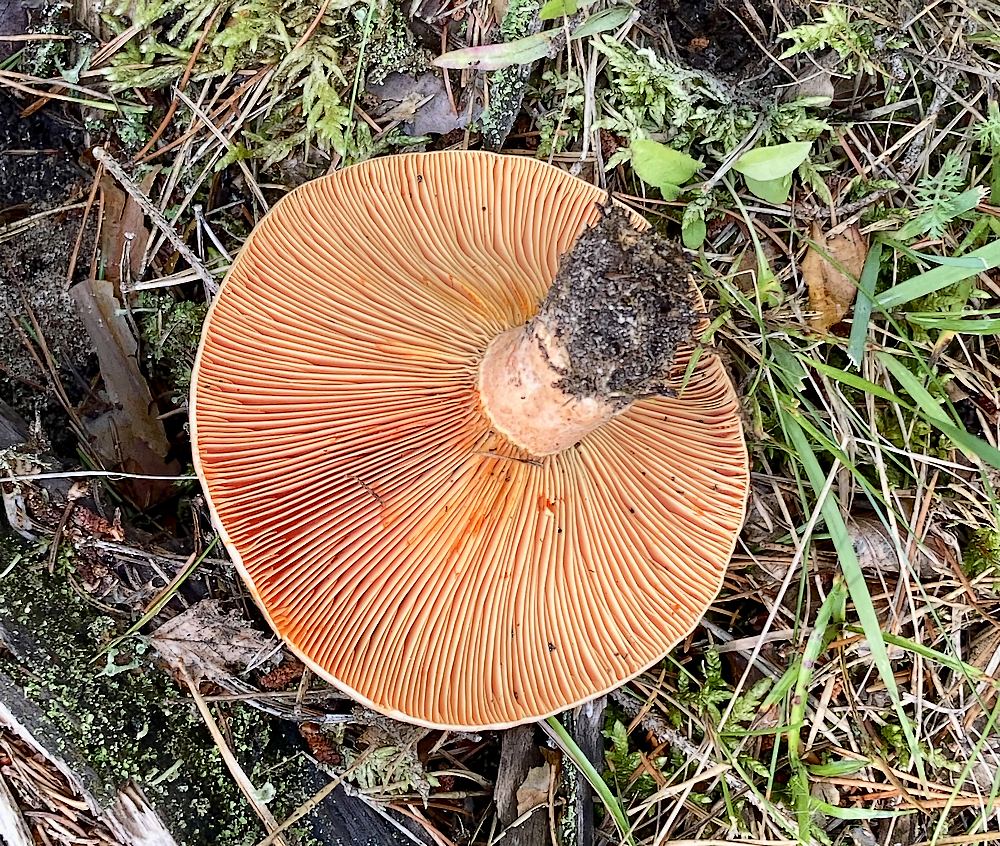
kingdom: Fungi
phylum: Basidiomycota
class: Agaricomycetes
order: Russulales
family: Russulaceae
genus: Lactarius
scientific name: Lactarius deliciosus
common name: velsmagende mælkehat
